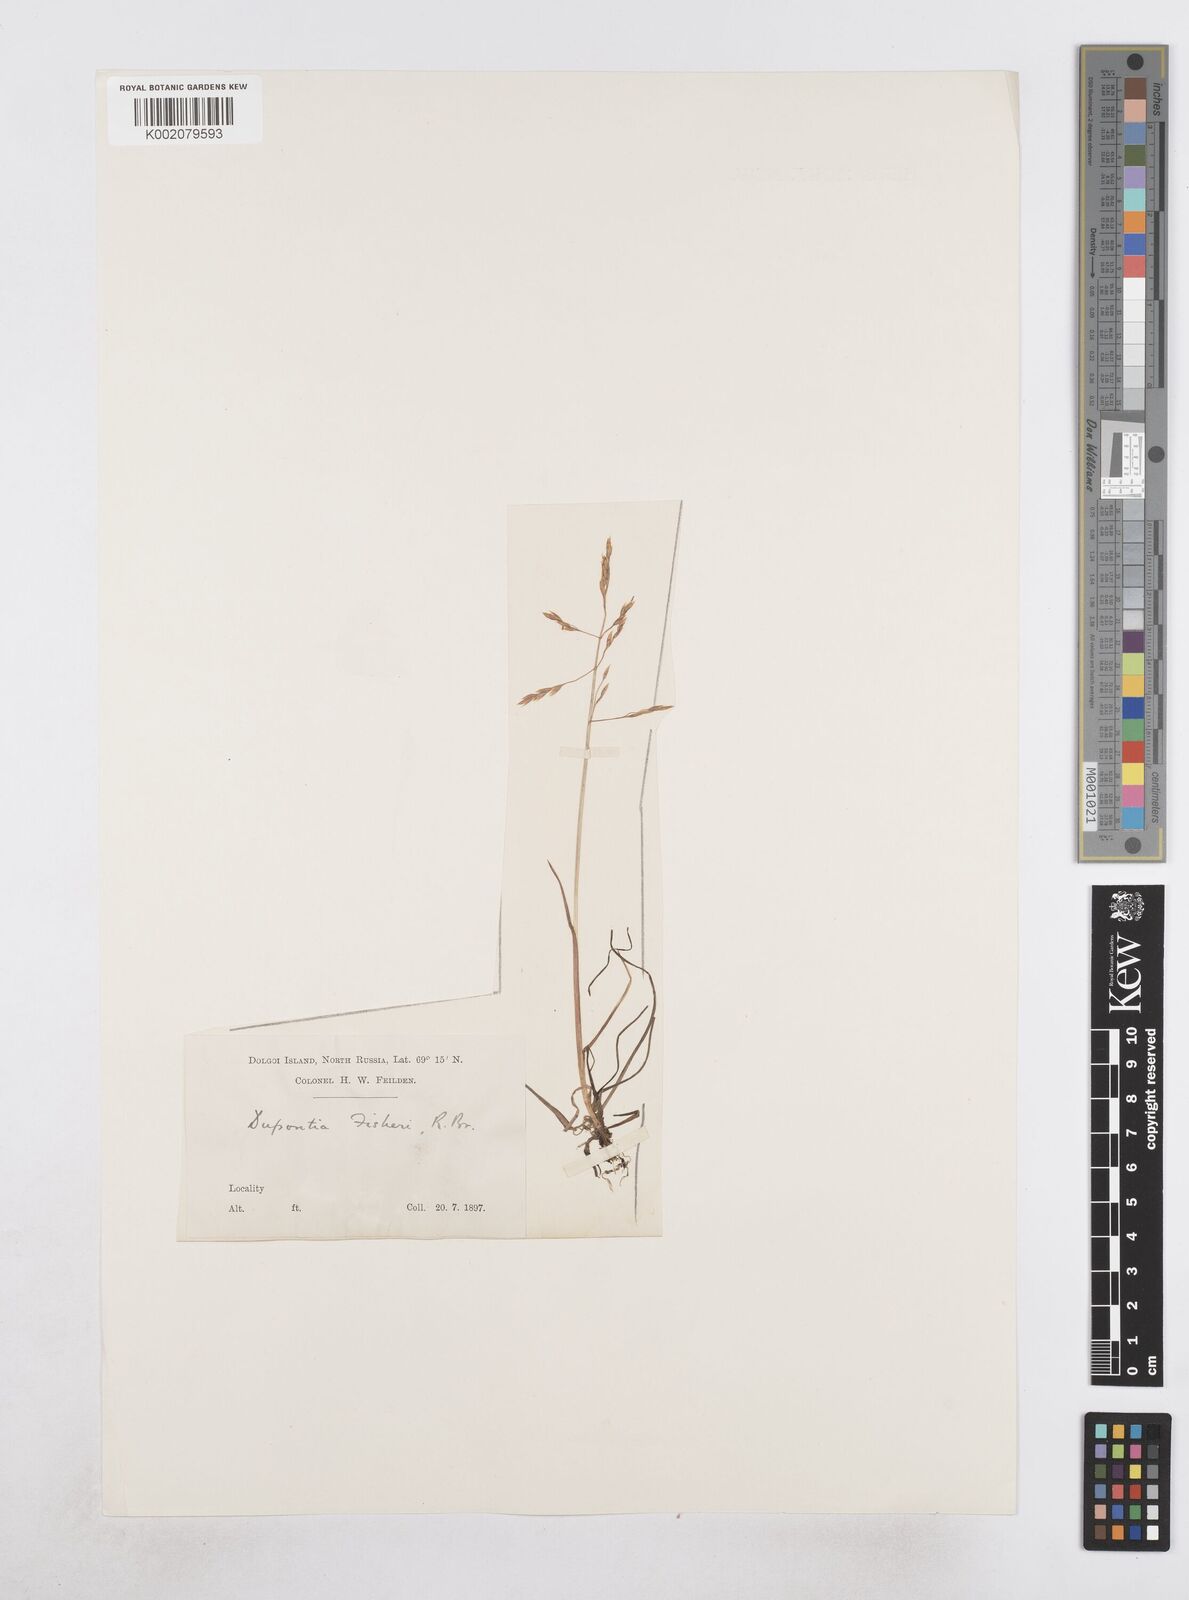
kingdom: Plantae
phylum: Tracheophyta
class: Liliopsida
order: Poales
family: Poaceae
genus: Dupontia
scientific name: Dupontia fisheri
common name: Tundra grass
